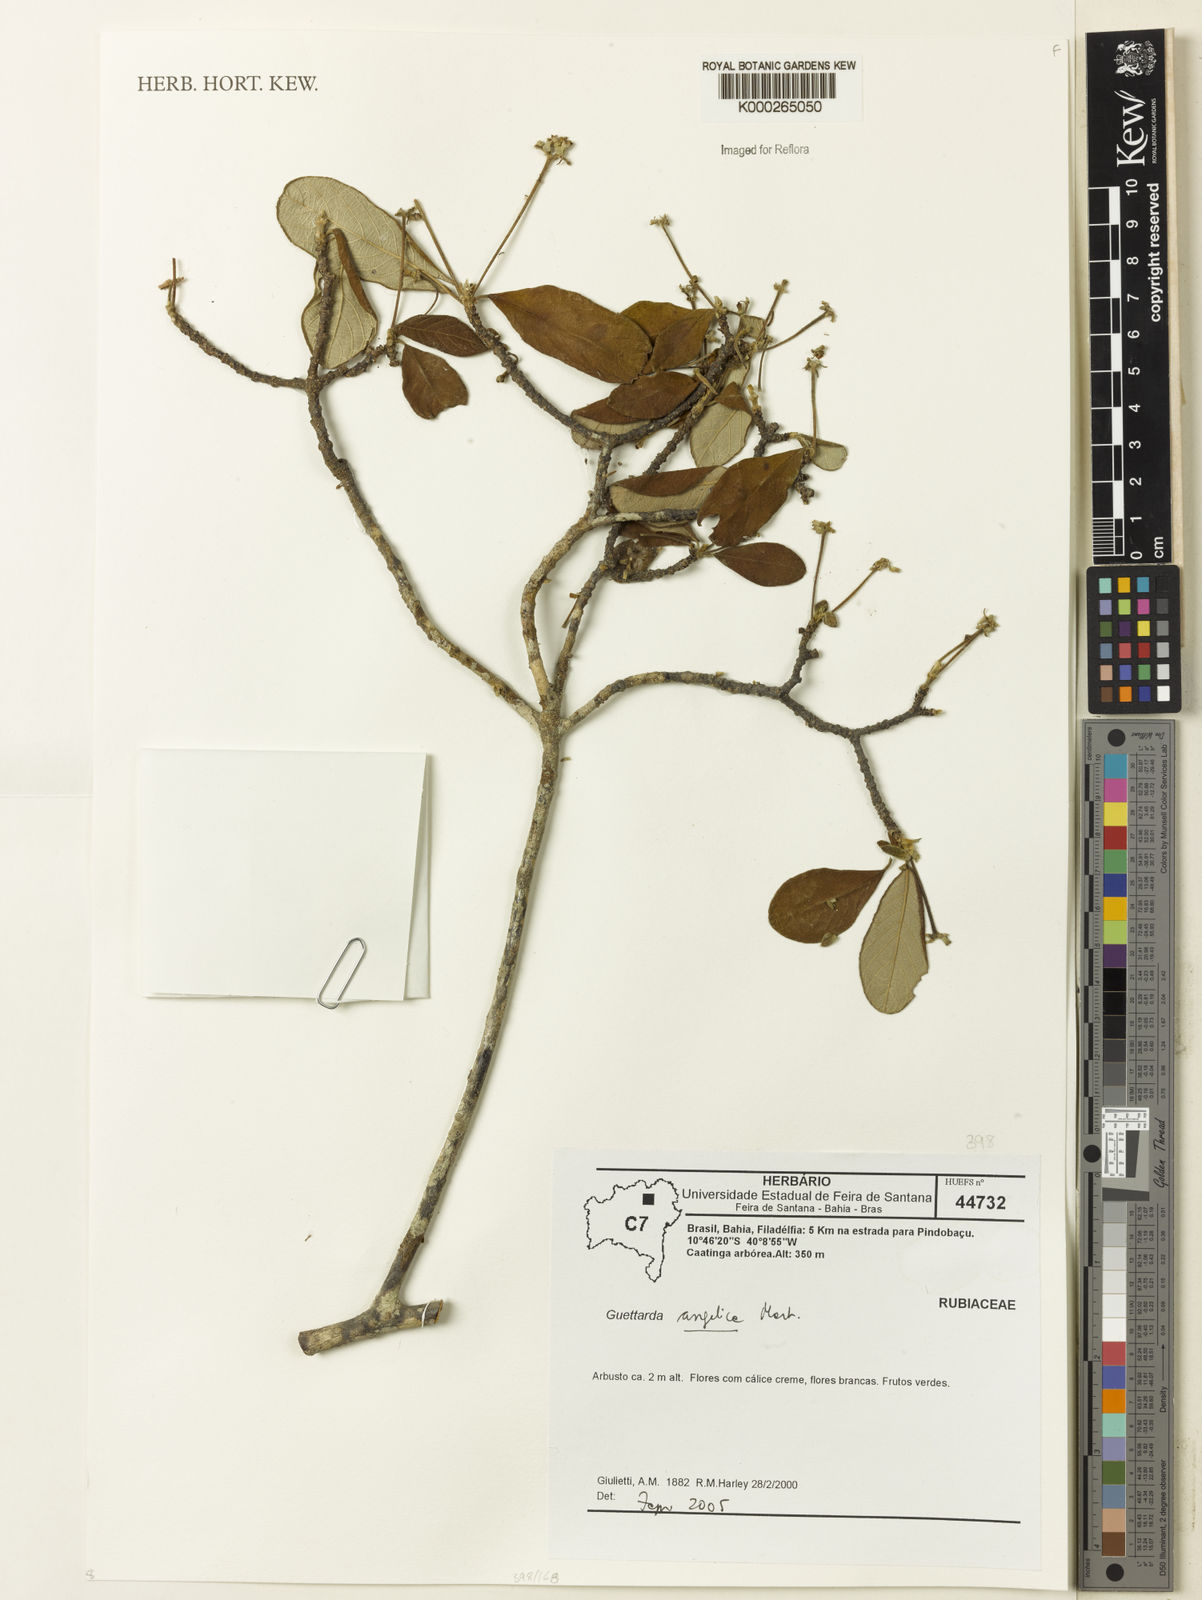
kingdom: Plantae
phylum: Tracheophyta
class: Magnoliopsida
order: Gentianales
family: Rubiaceae
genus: Guettarda
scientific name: Guettarda
